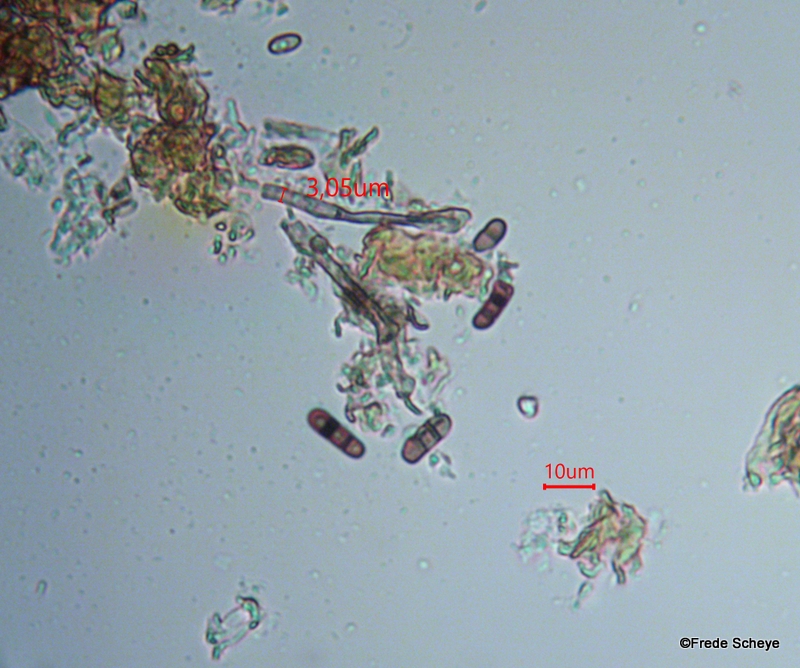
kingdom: Fungi
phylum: Ascomycota
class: Dothideomycetes
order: Pleosporales
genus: Bactrodesmium
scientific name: Bactrodesmium xerophilum
